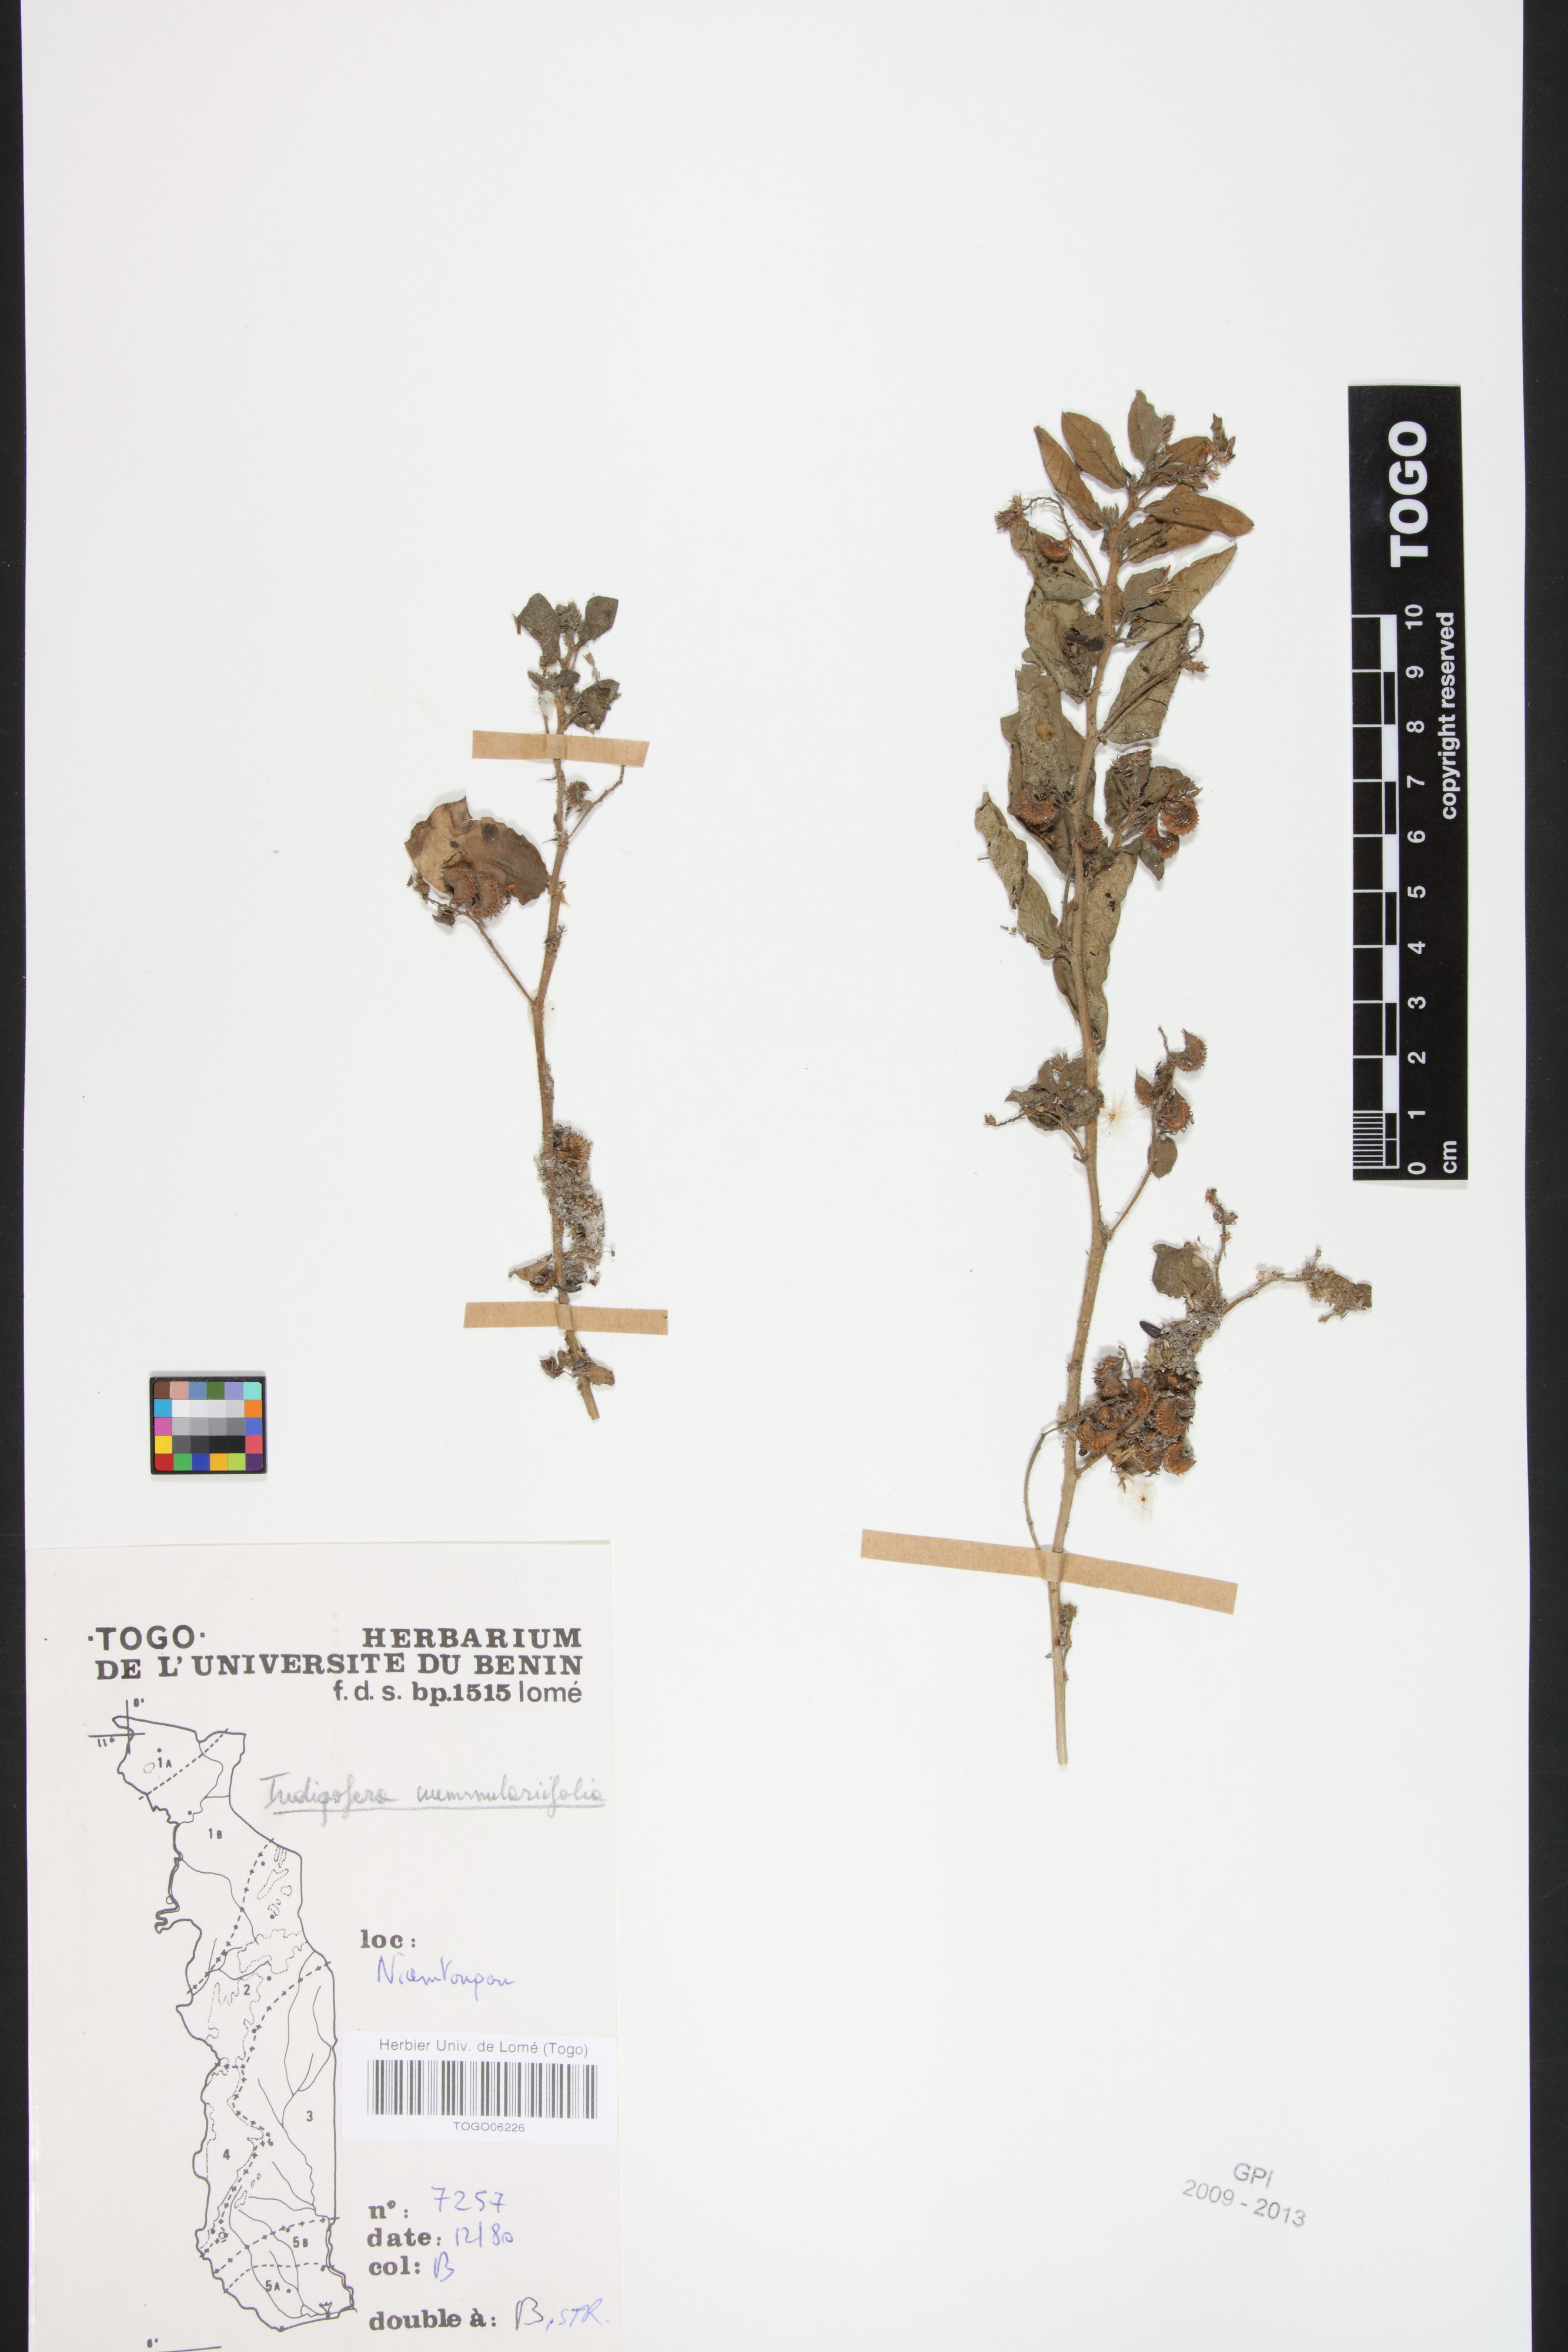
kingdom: Plantae
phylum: Tracheophyta
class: Magnoliopsida
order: Fabales
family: Fabaceae
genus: Indigofera
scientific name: Indigofera nummulariifolia
